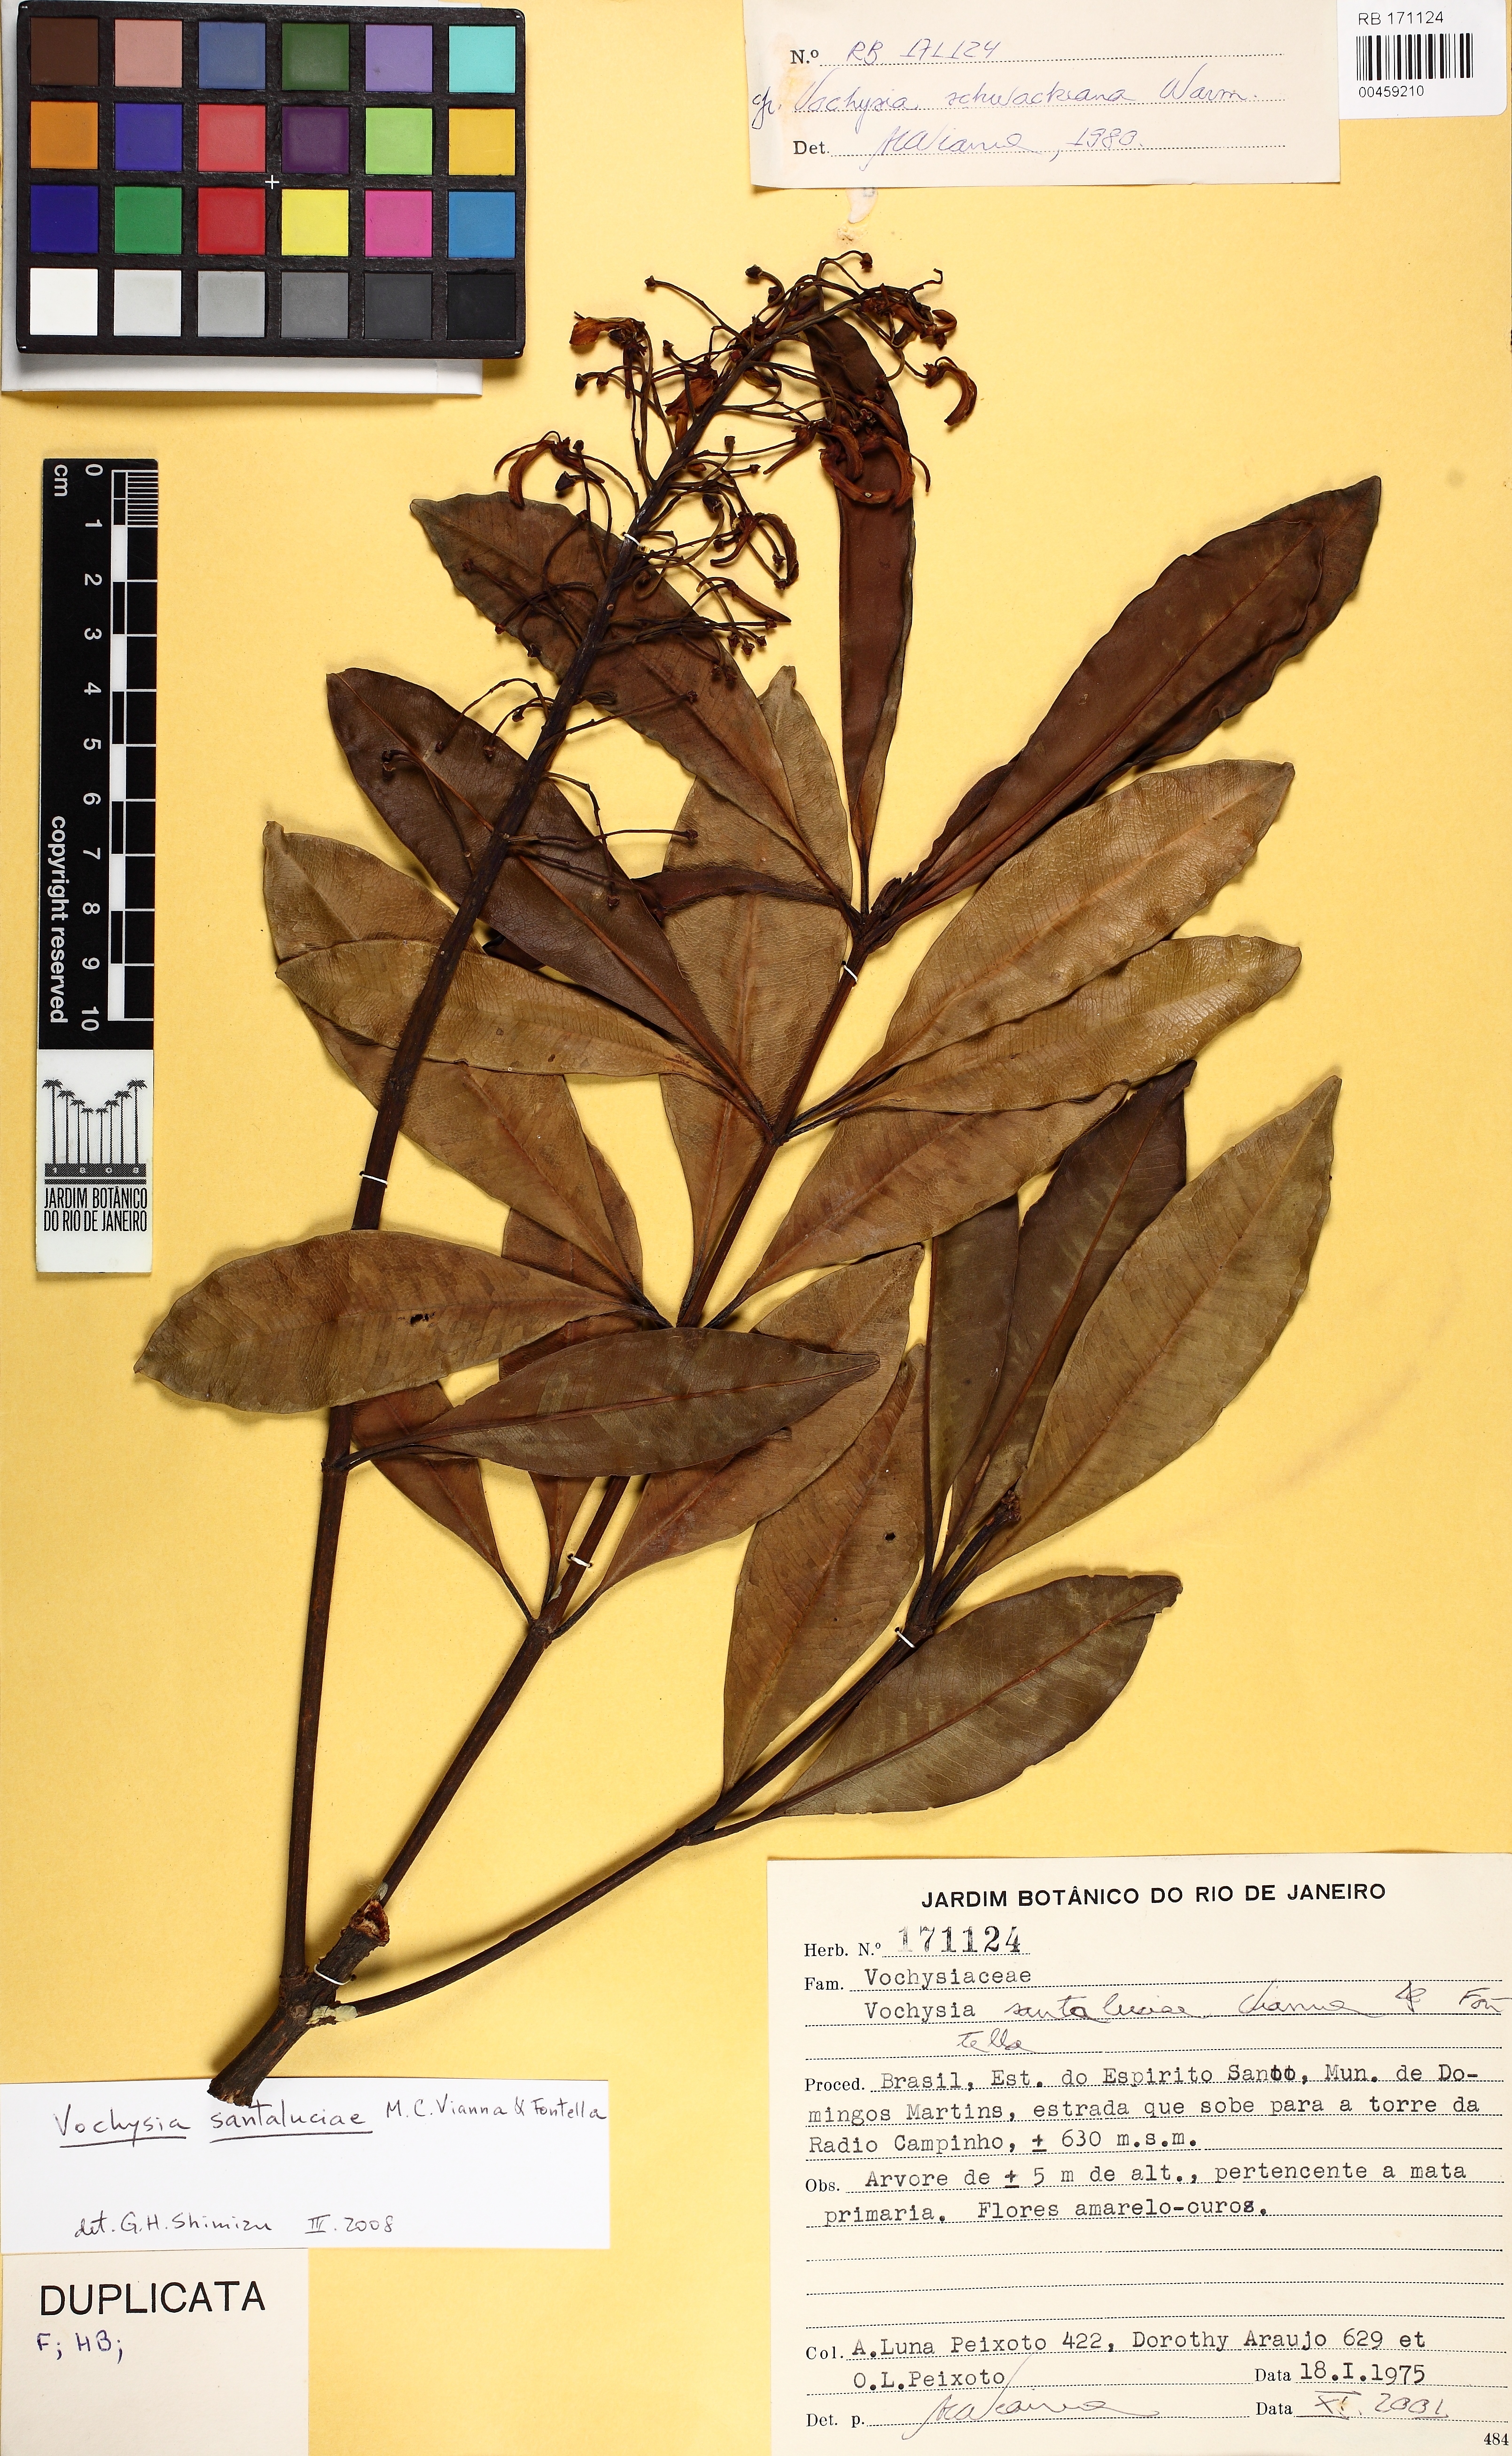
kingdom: Plantae
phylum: Tracheophyta
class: Magnoliopsida
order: Myrtales
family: Vochysiaceae
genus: Vochysia
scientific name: Vochysia santaluciae
